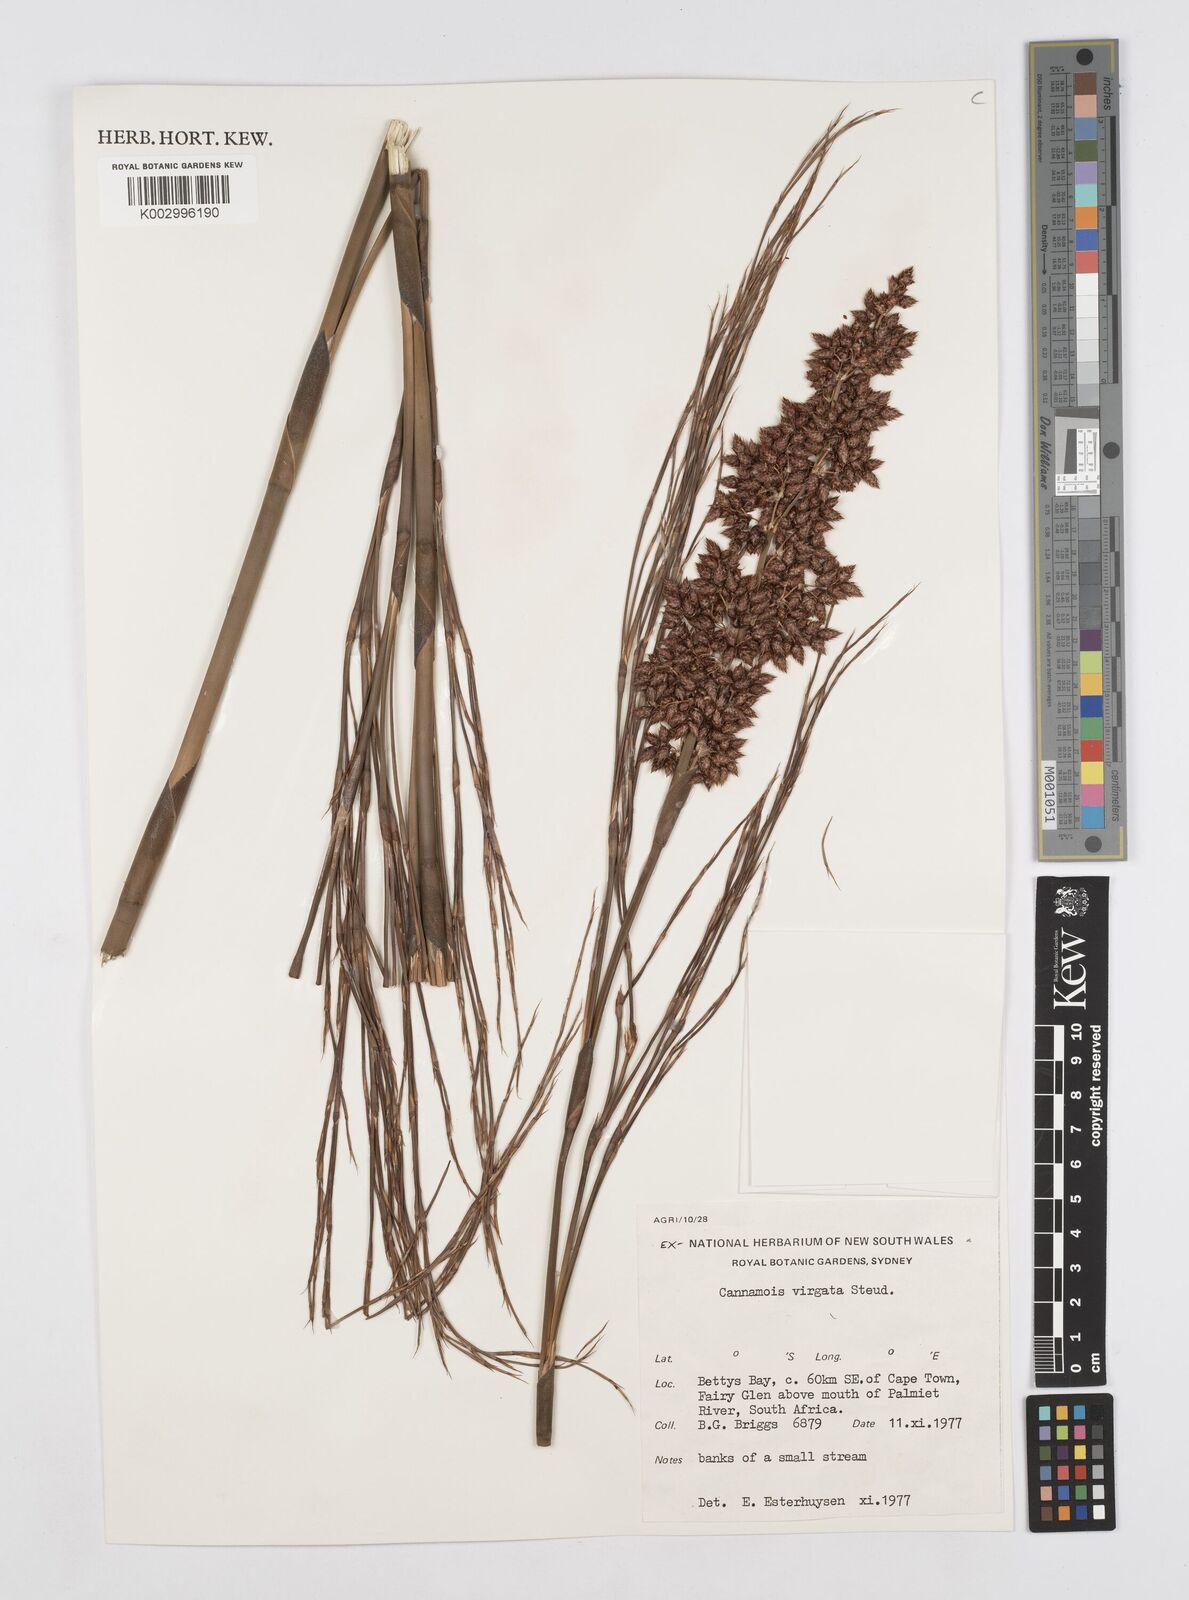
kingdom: Plantae
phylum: Tracheophyta
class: Liliopsida
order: Poales
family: Restionaceae
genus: Cannomois
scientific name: Cannomois virgata
